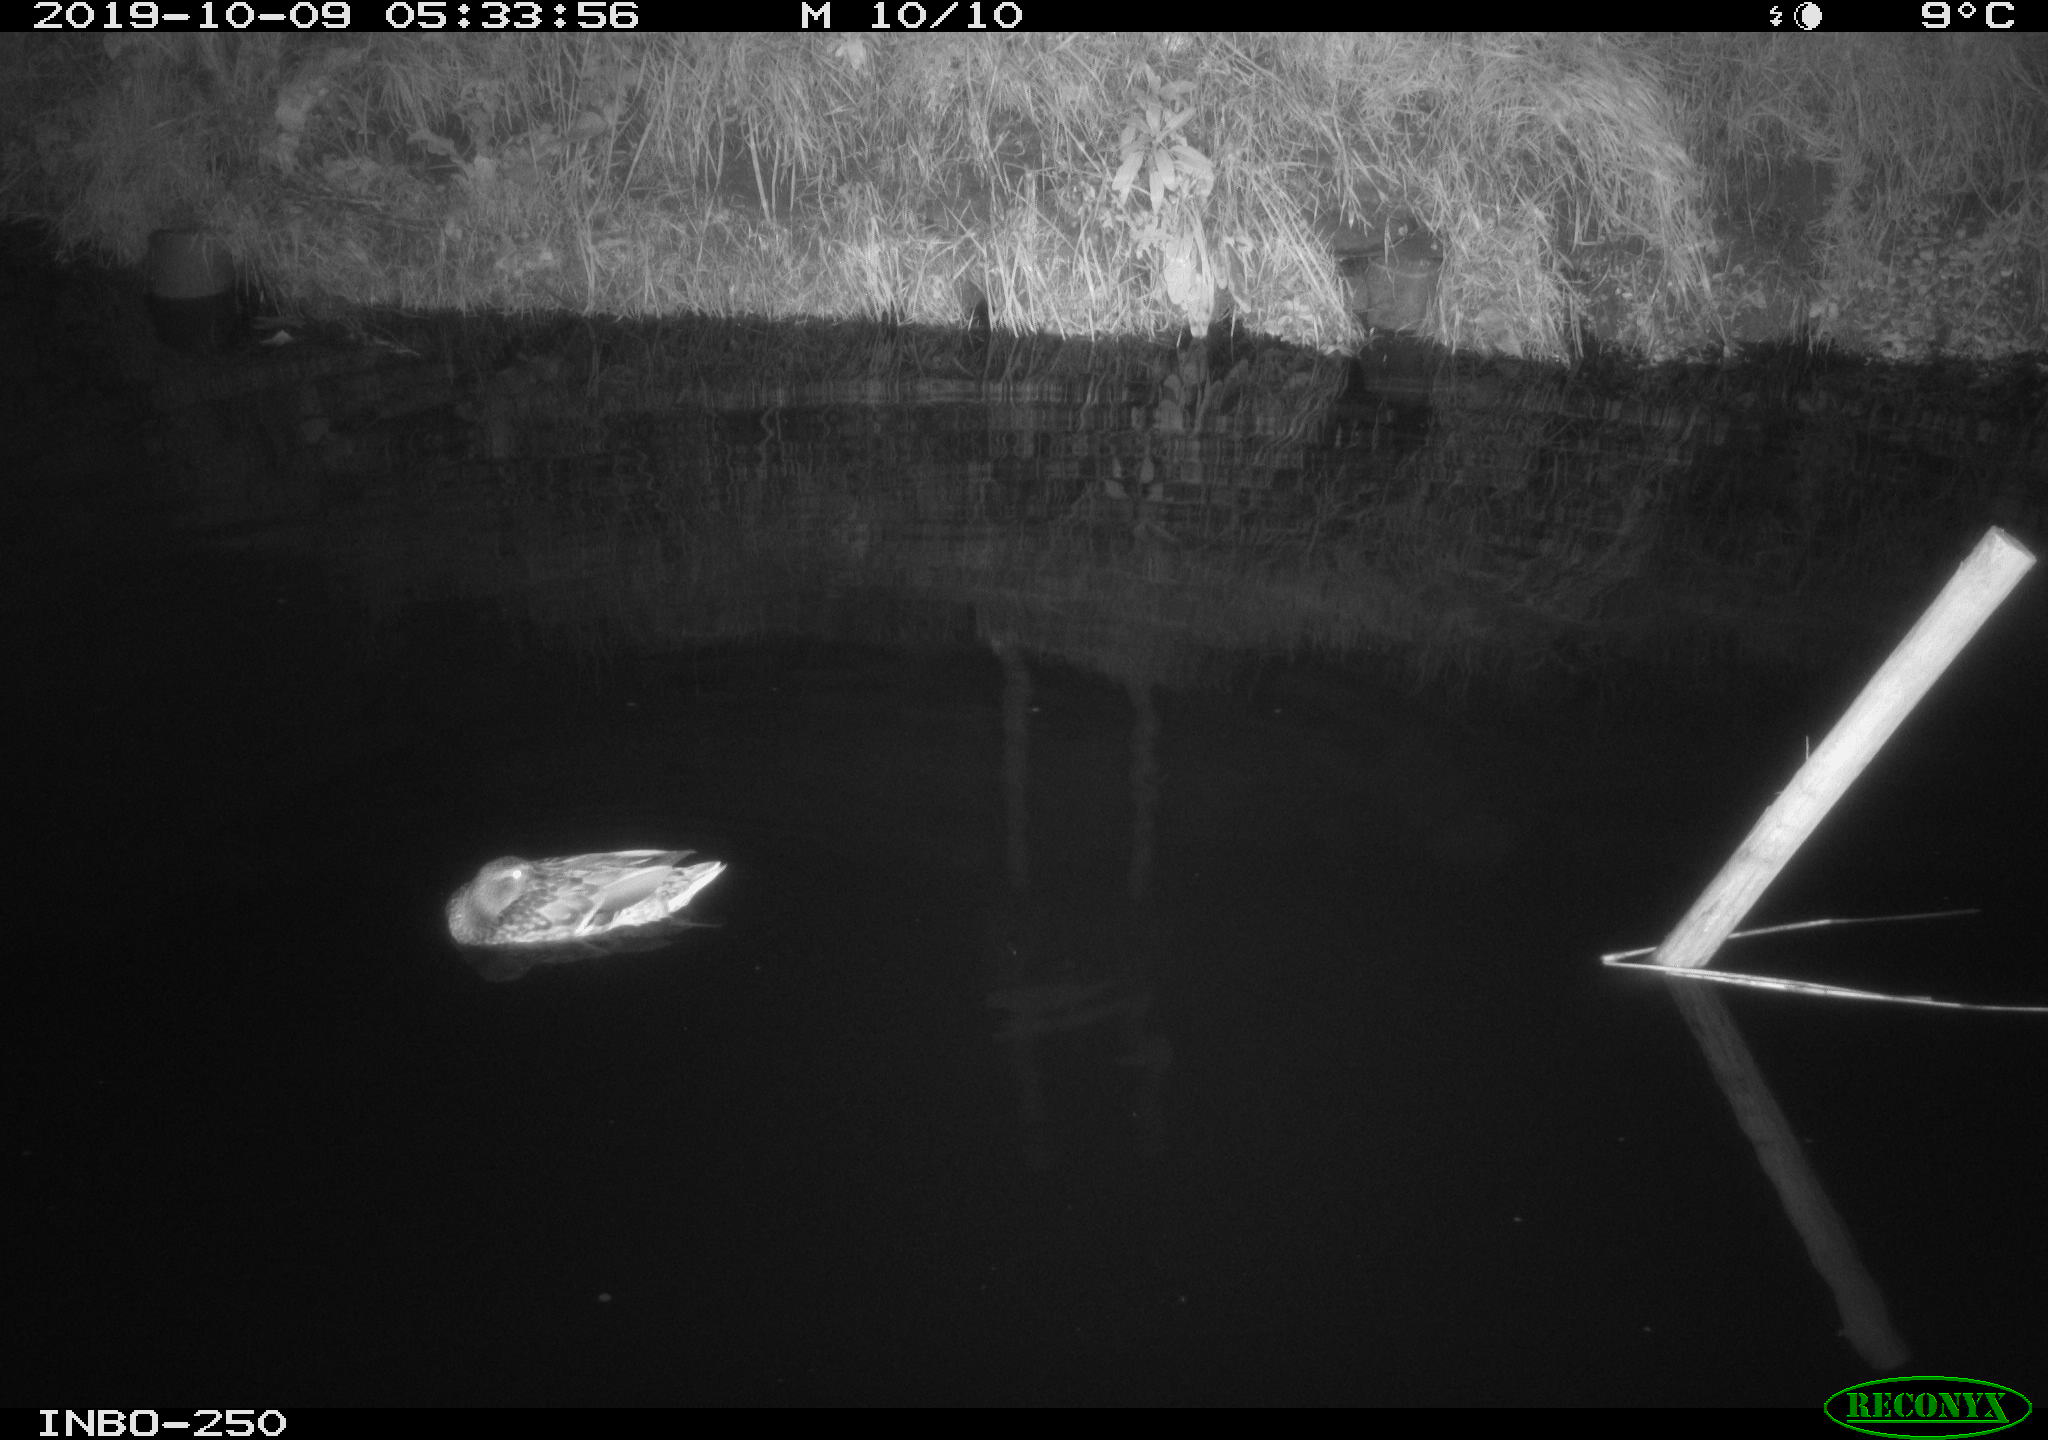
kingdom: Animalia
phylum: Chordata
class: Aves
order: Anseriformes
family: Anatidae
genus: Anas
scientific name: Anas platyrhynchos
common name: Mallard
